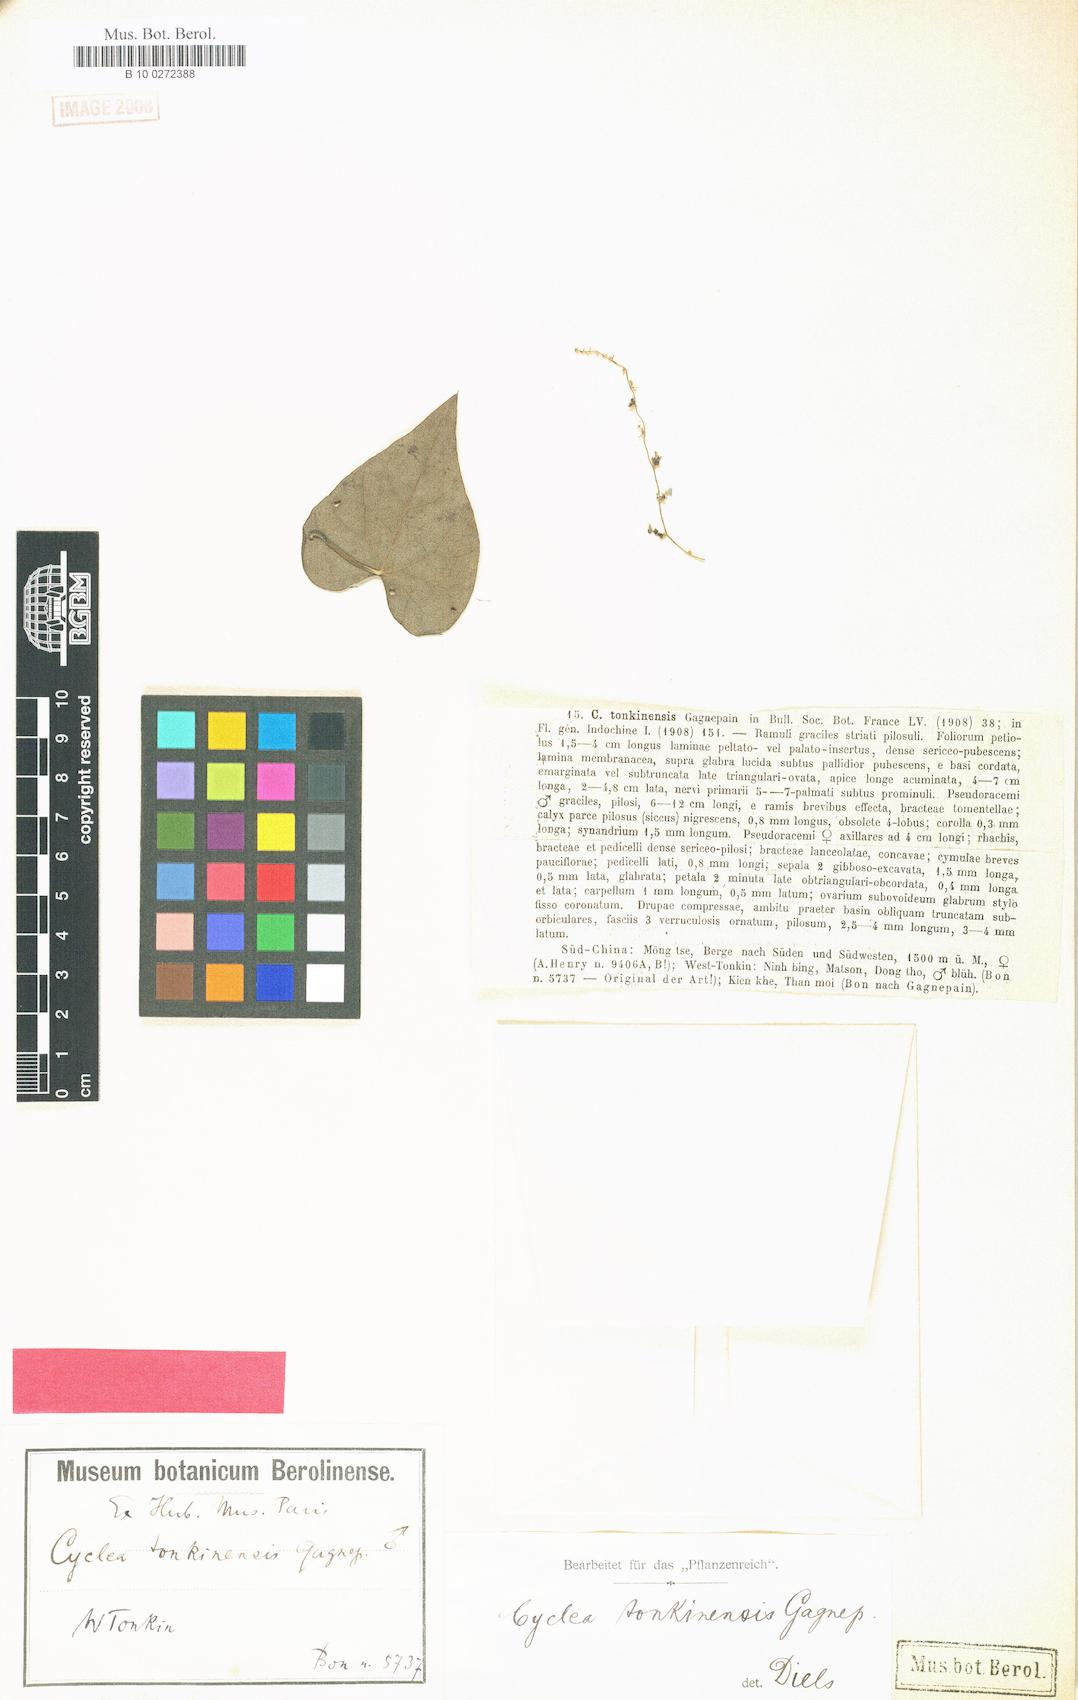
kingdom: Plantae
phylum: Tracheophyta
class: Magnoliopsida
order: Ranunculales
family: Menispermaceae
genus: Cyclea
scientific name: Cyclea tonkinensis
